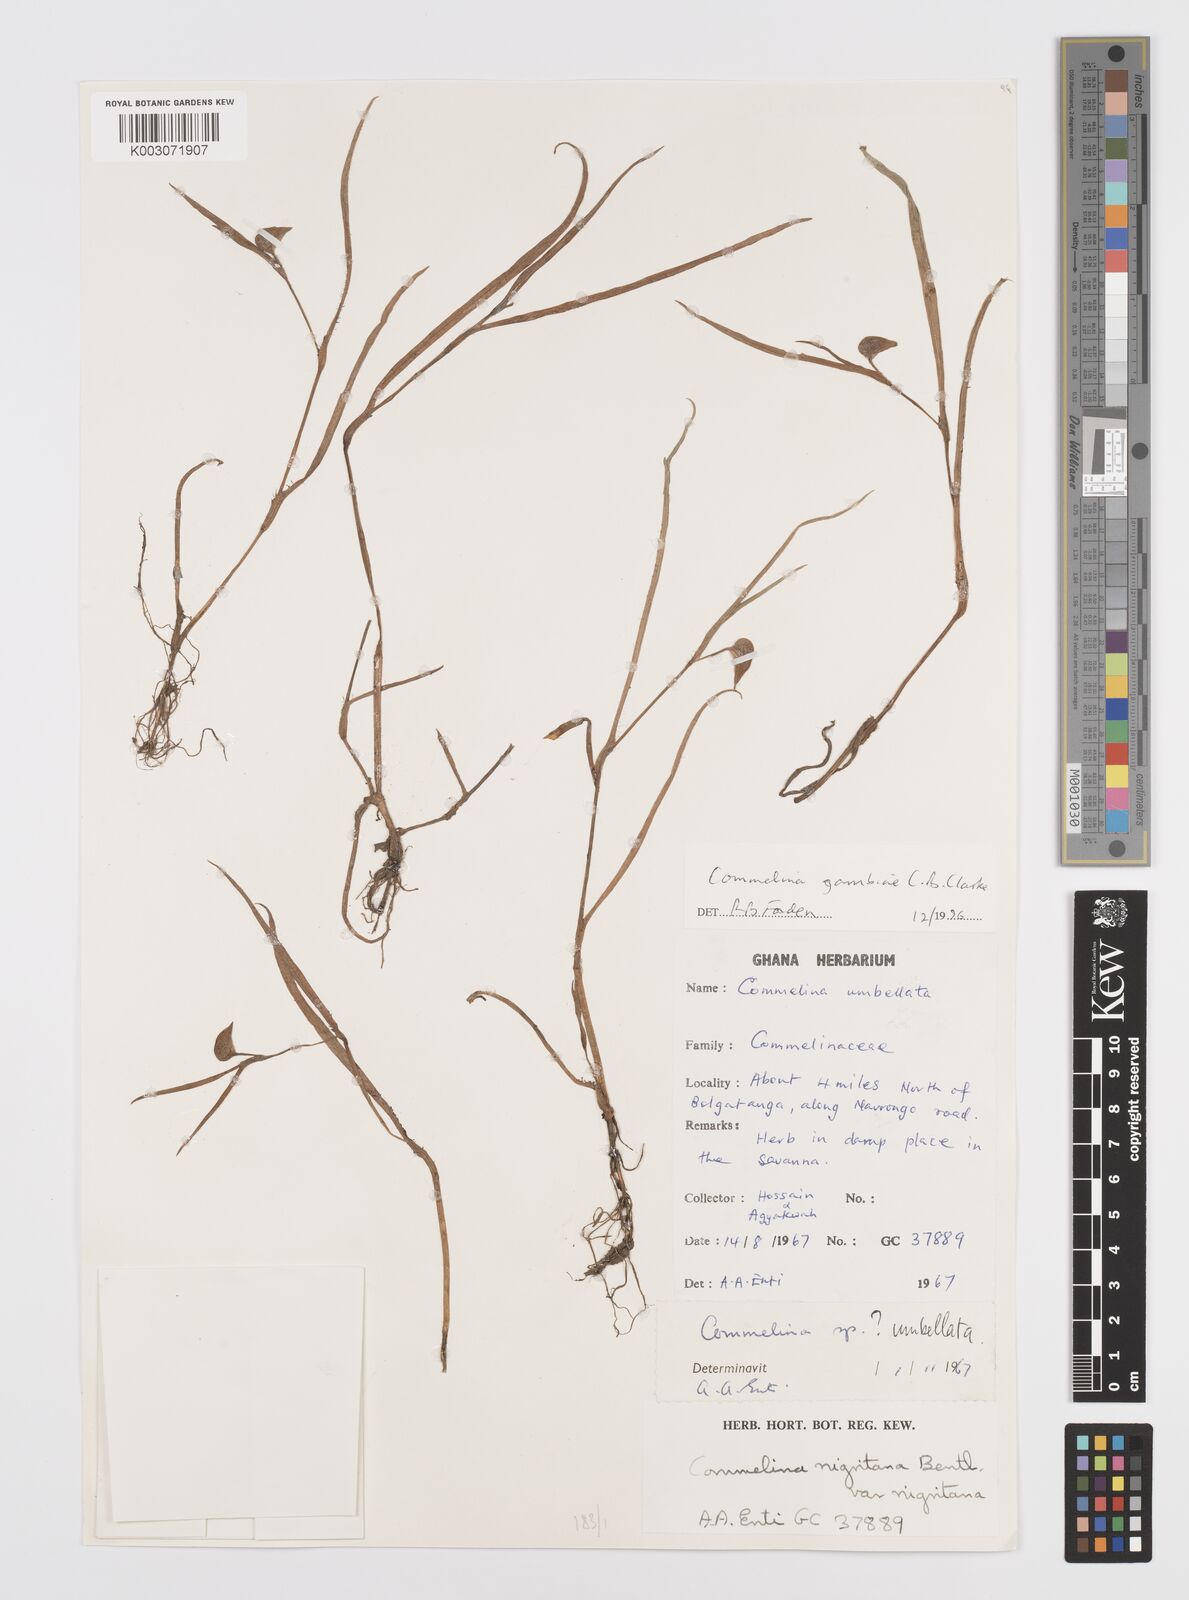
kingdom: Plantae
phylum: Tracheophyta
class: Liliopsida
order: Commelinales
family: Commelinaceae
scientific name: Commelinaceae
